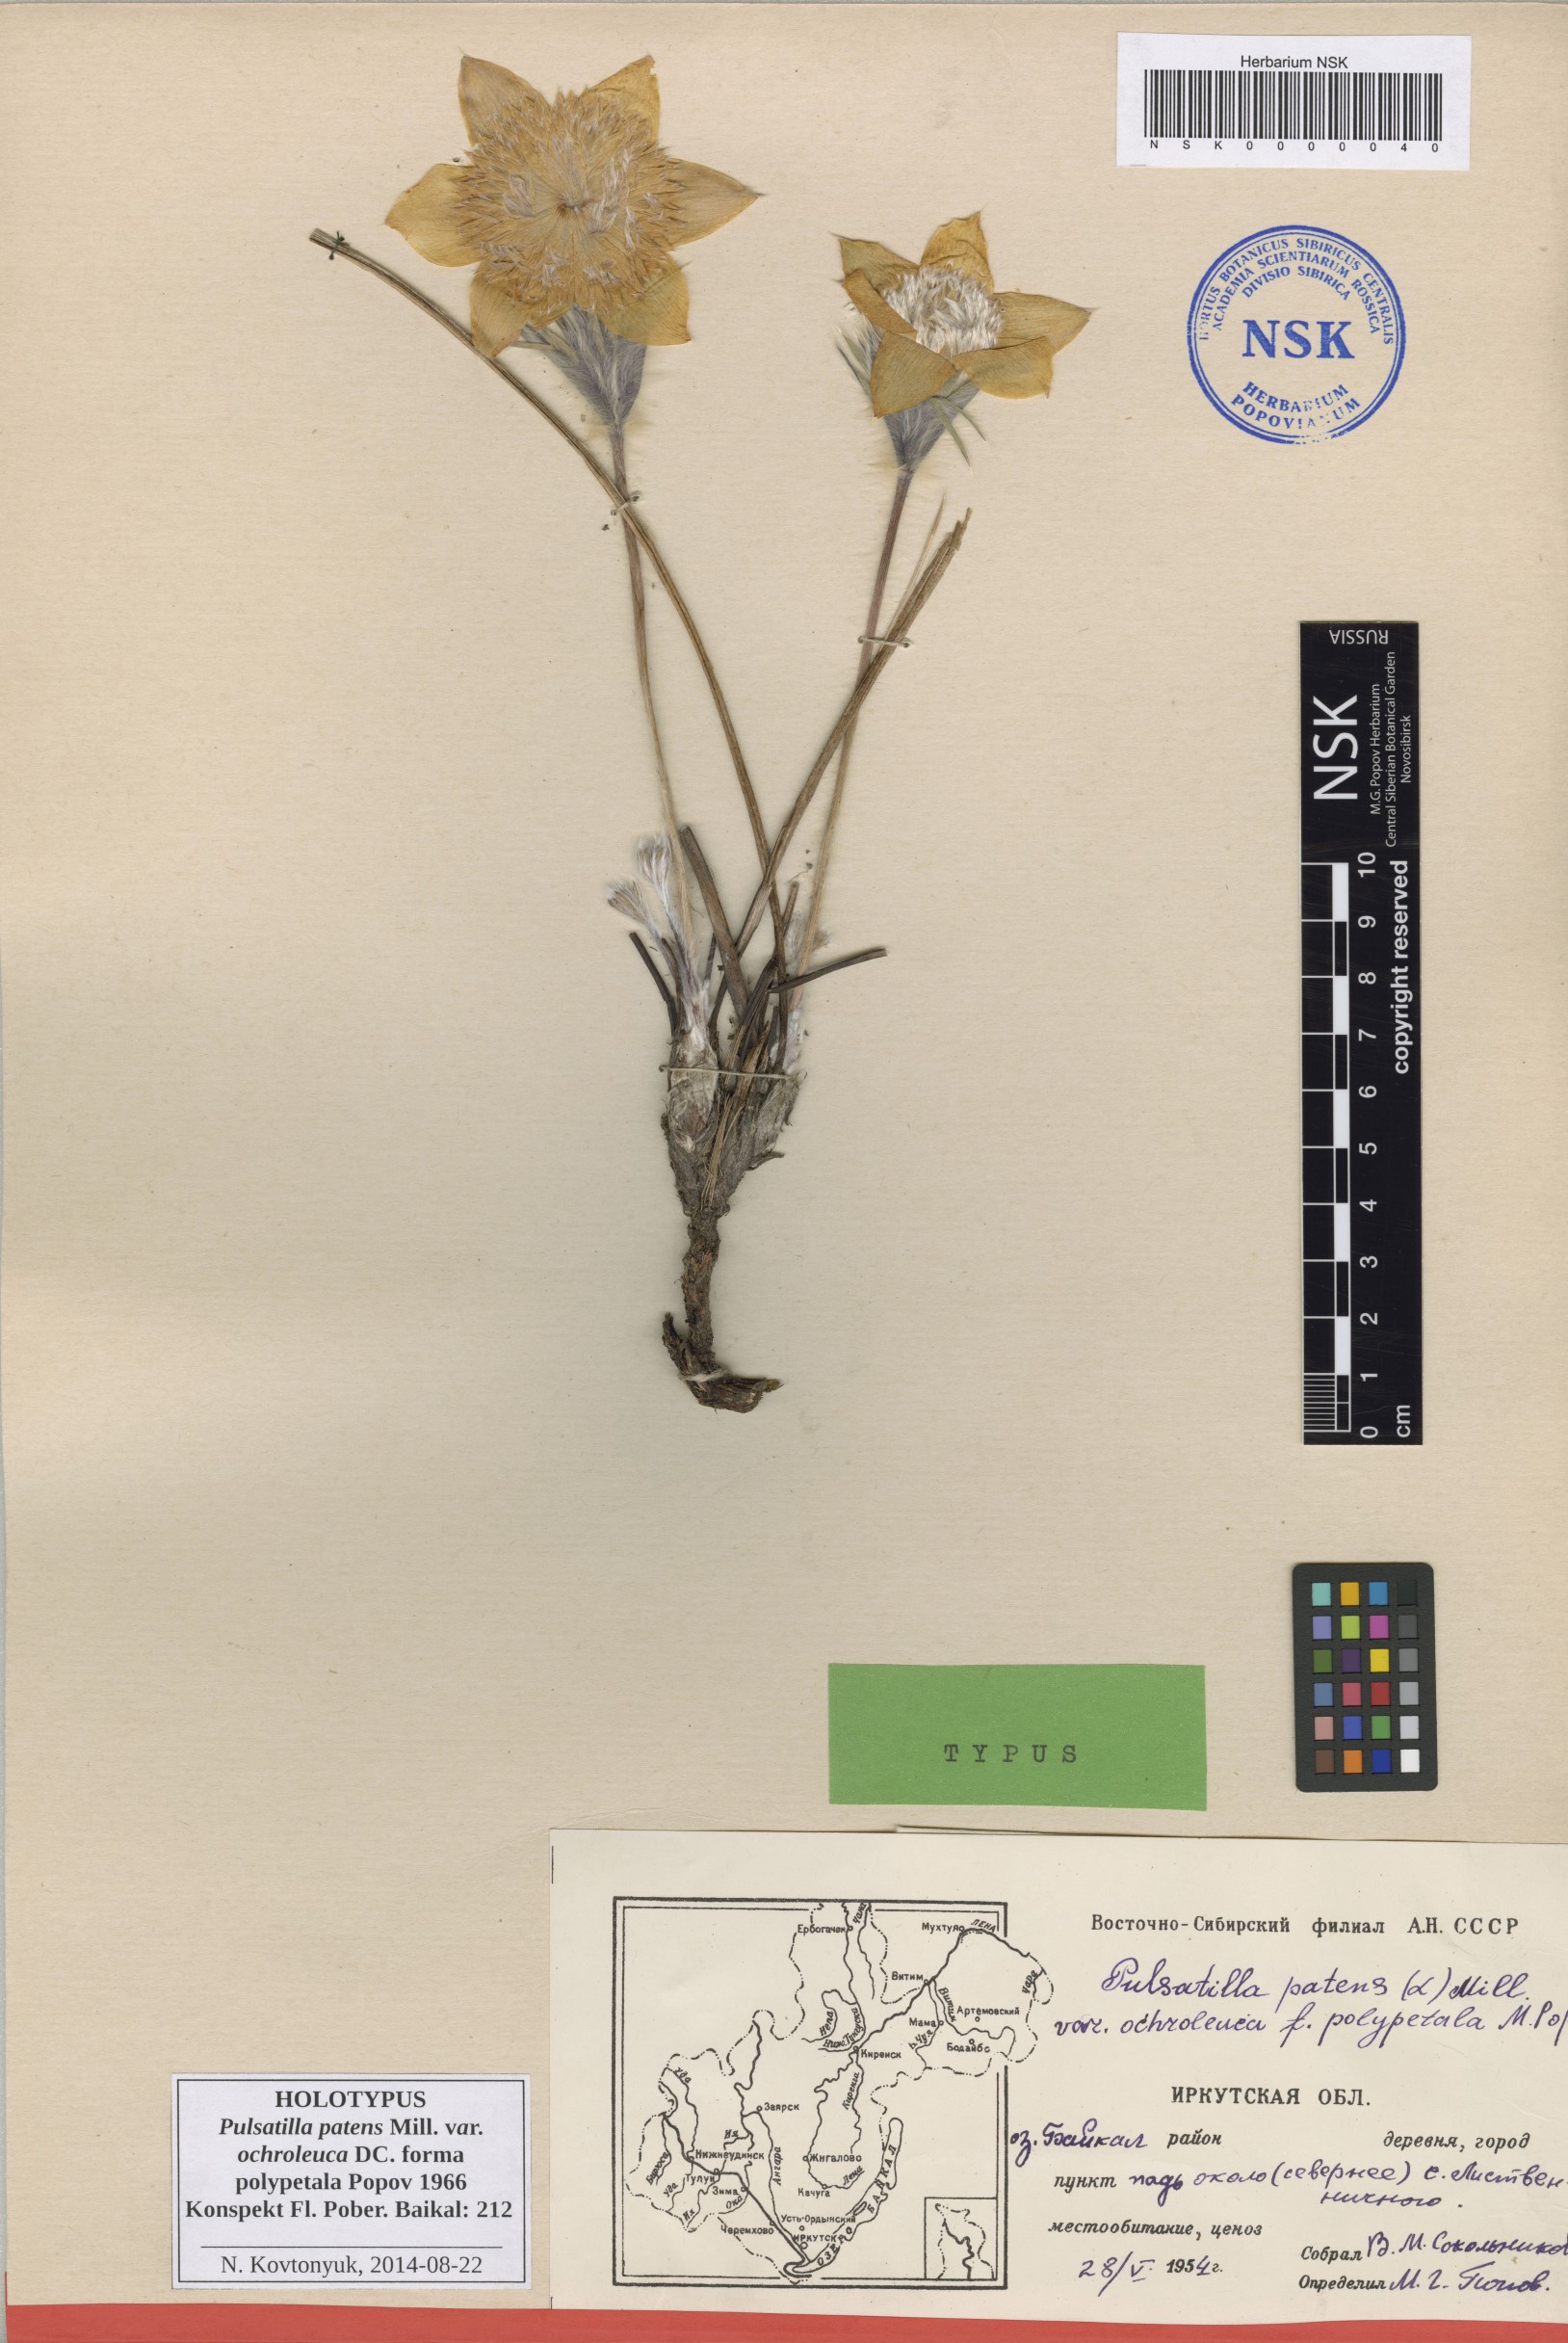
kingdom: Plantae
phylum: Tracheophyta
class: Magnoliopsida
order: Ranunculales
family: Ranunculaceae
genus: Pulsatilla
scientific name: Pulsatilla patens
